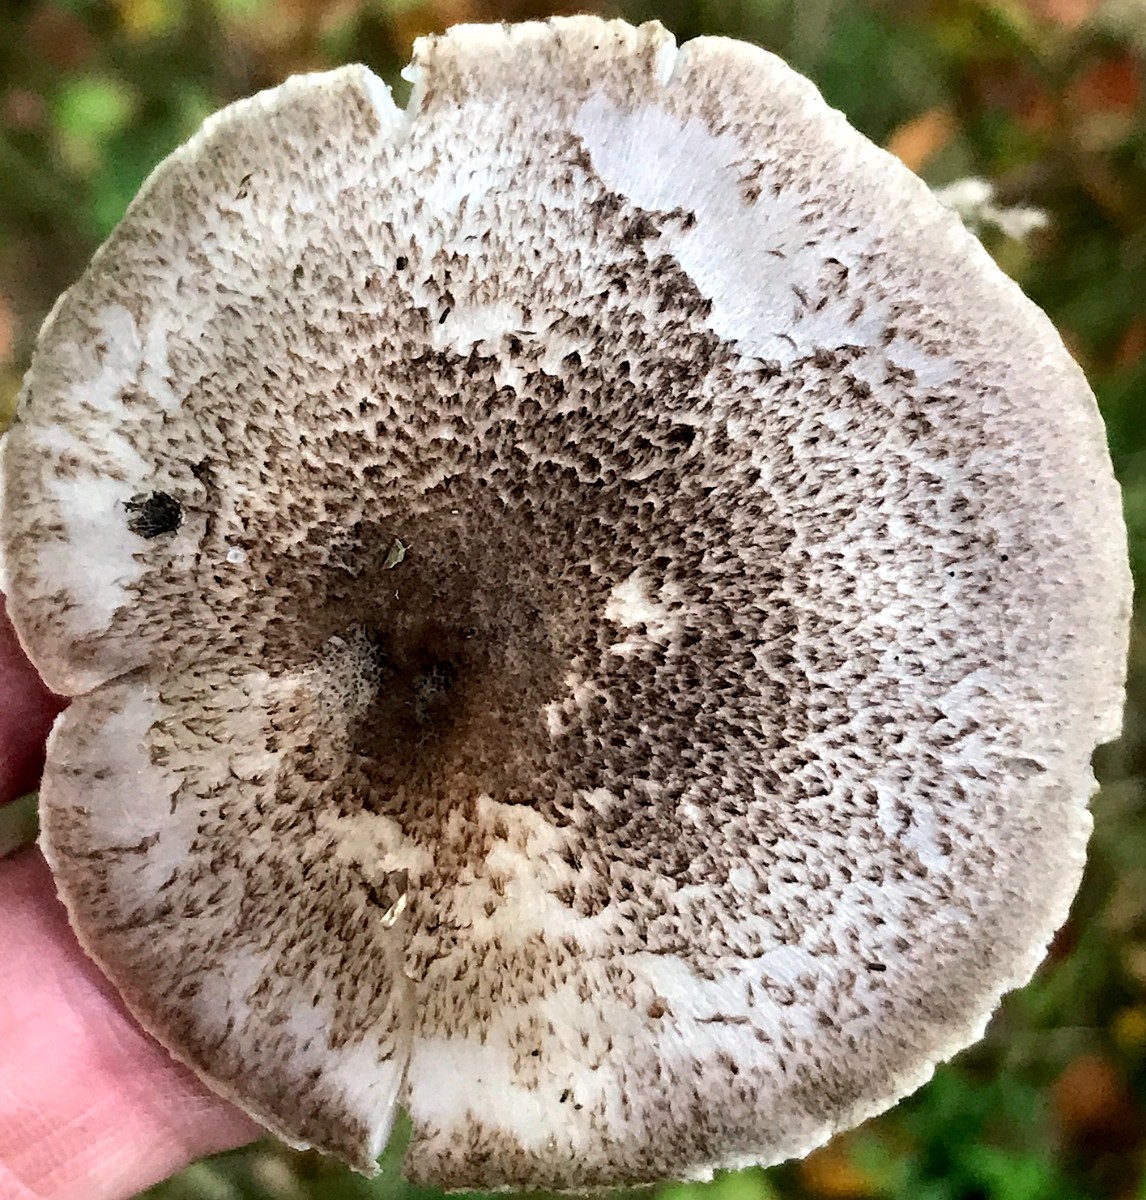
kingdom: Fungi
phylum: Basidiomycota
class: Agaricomycetes
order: Agaricales
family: Tricholomataceae
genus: Tricholoma
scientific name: Tricholoma scalpturatum
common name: gulplettet ridderhat
